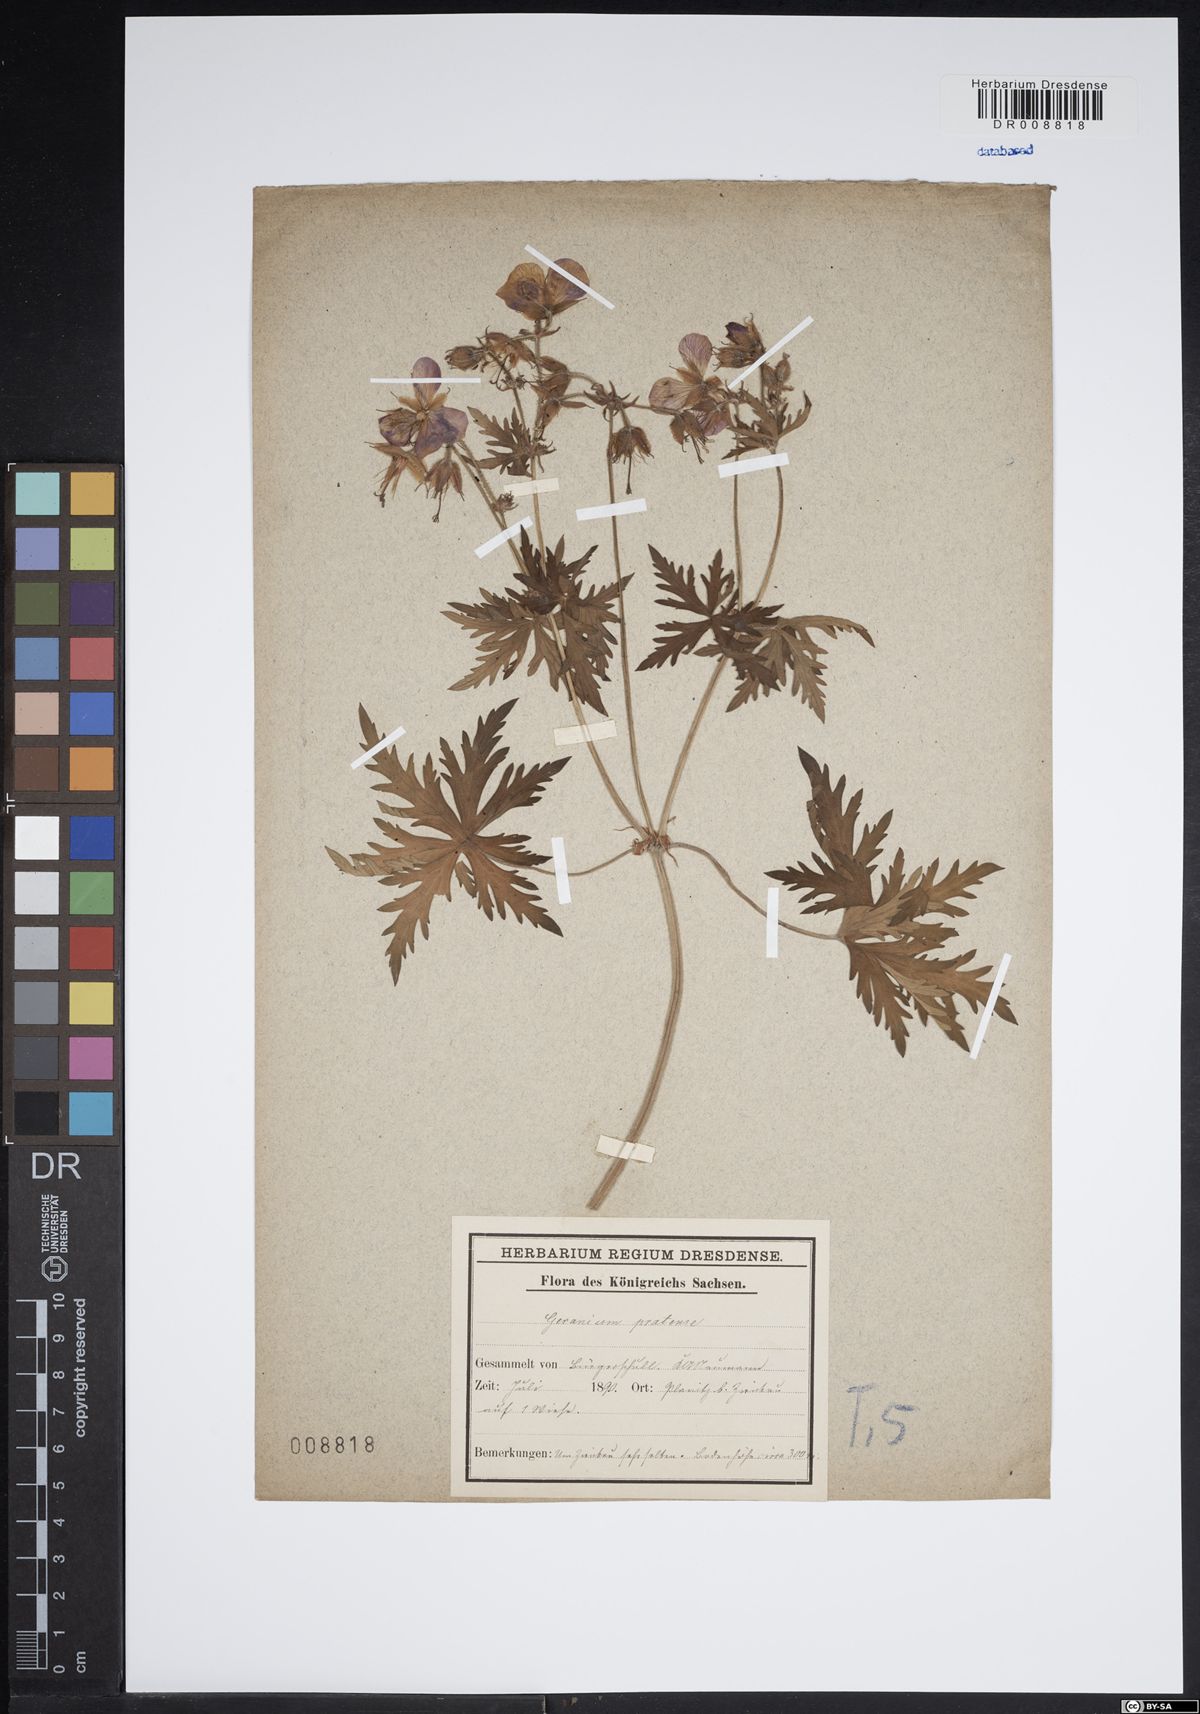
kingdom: Plantae
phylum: Tracheophyta
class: Magnoliopsida
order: Geraniales
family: Geraniaceae
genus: Geranium
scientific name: Geranium pratense
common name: Meadow crane's-bill
